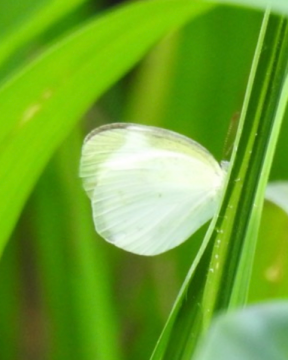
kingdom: Animalia
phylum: Arthropoda
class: Insecta
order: Lepidoptera
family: Pieridae
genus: Eurema
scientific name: Eurema albula
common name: White Yellow
